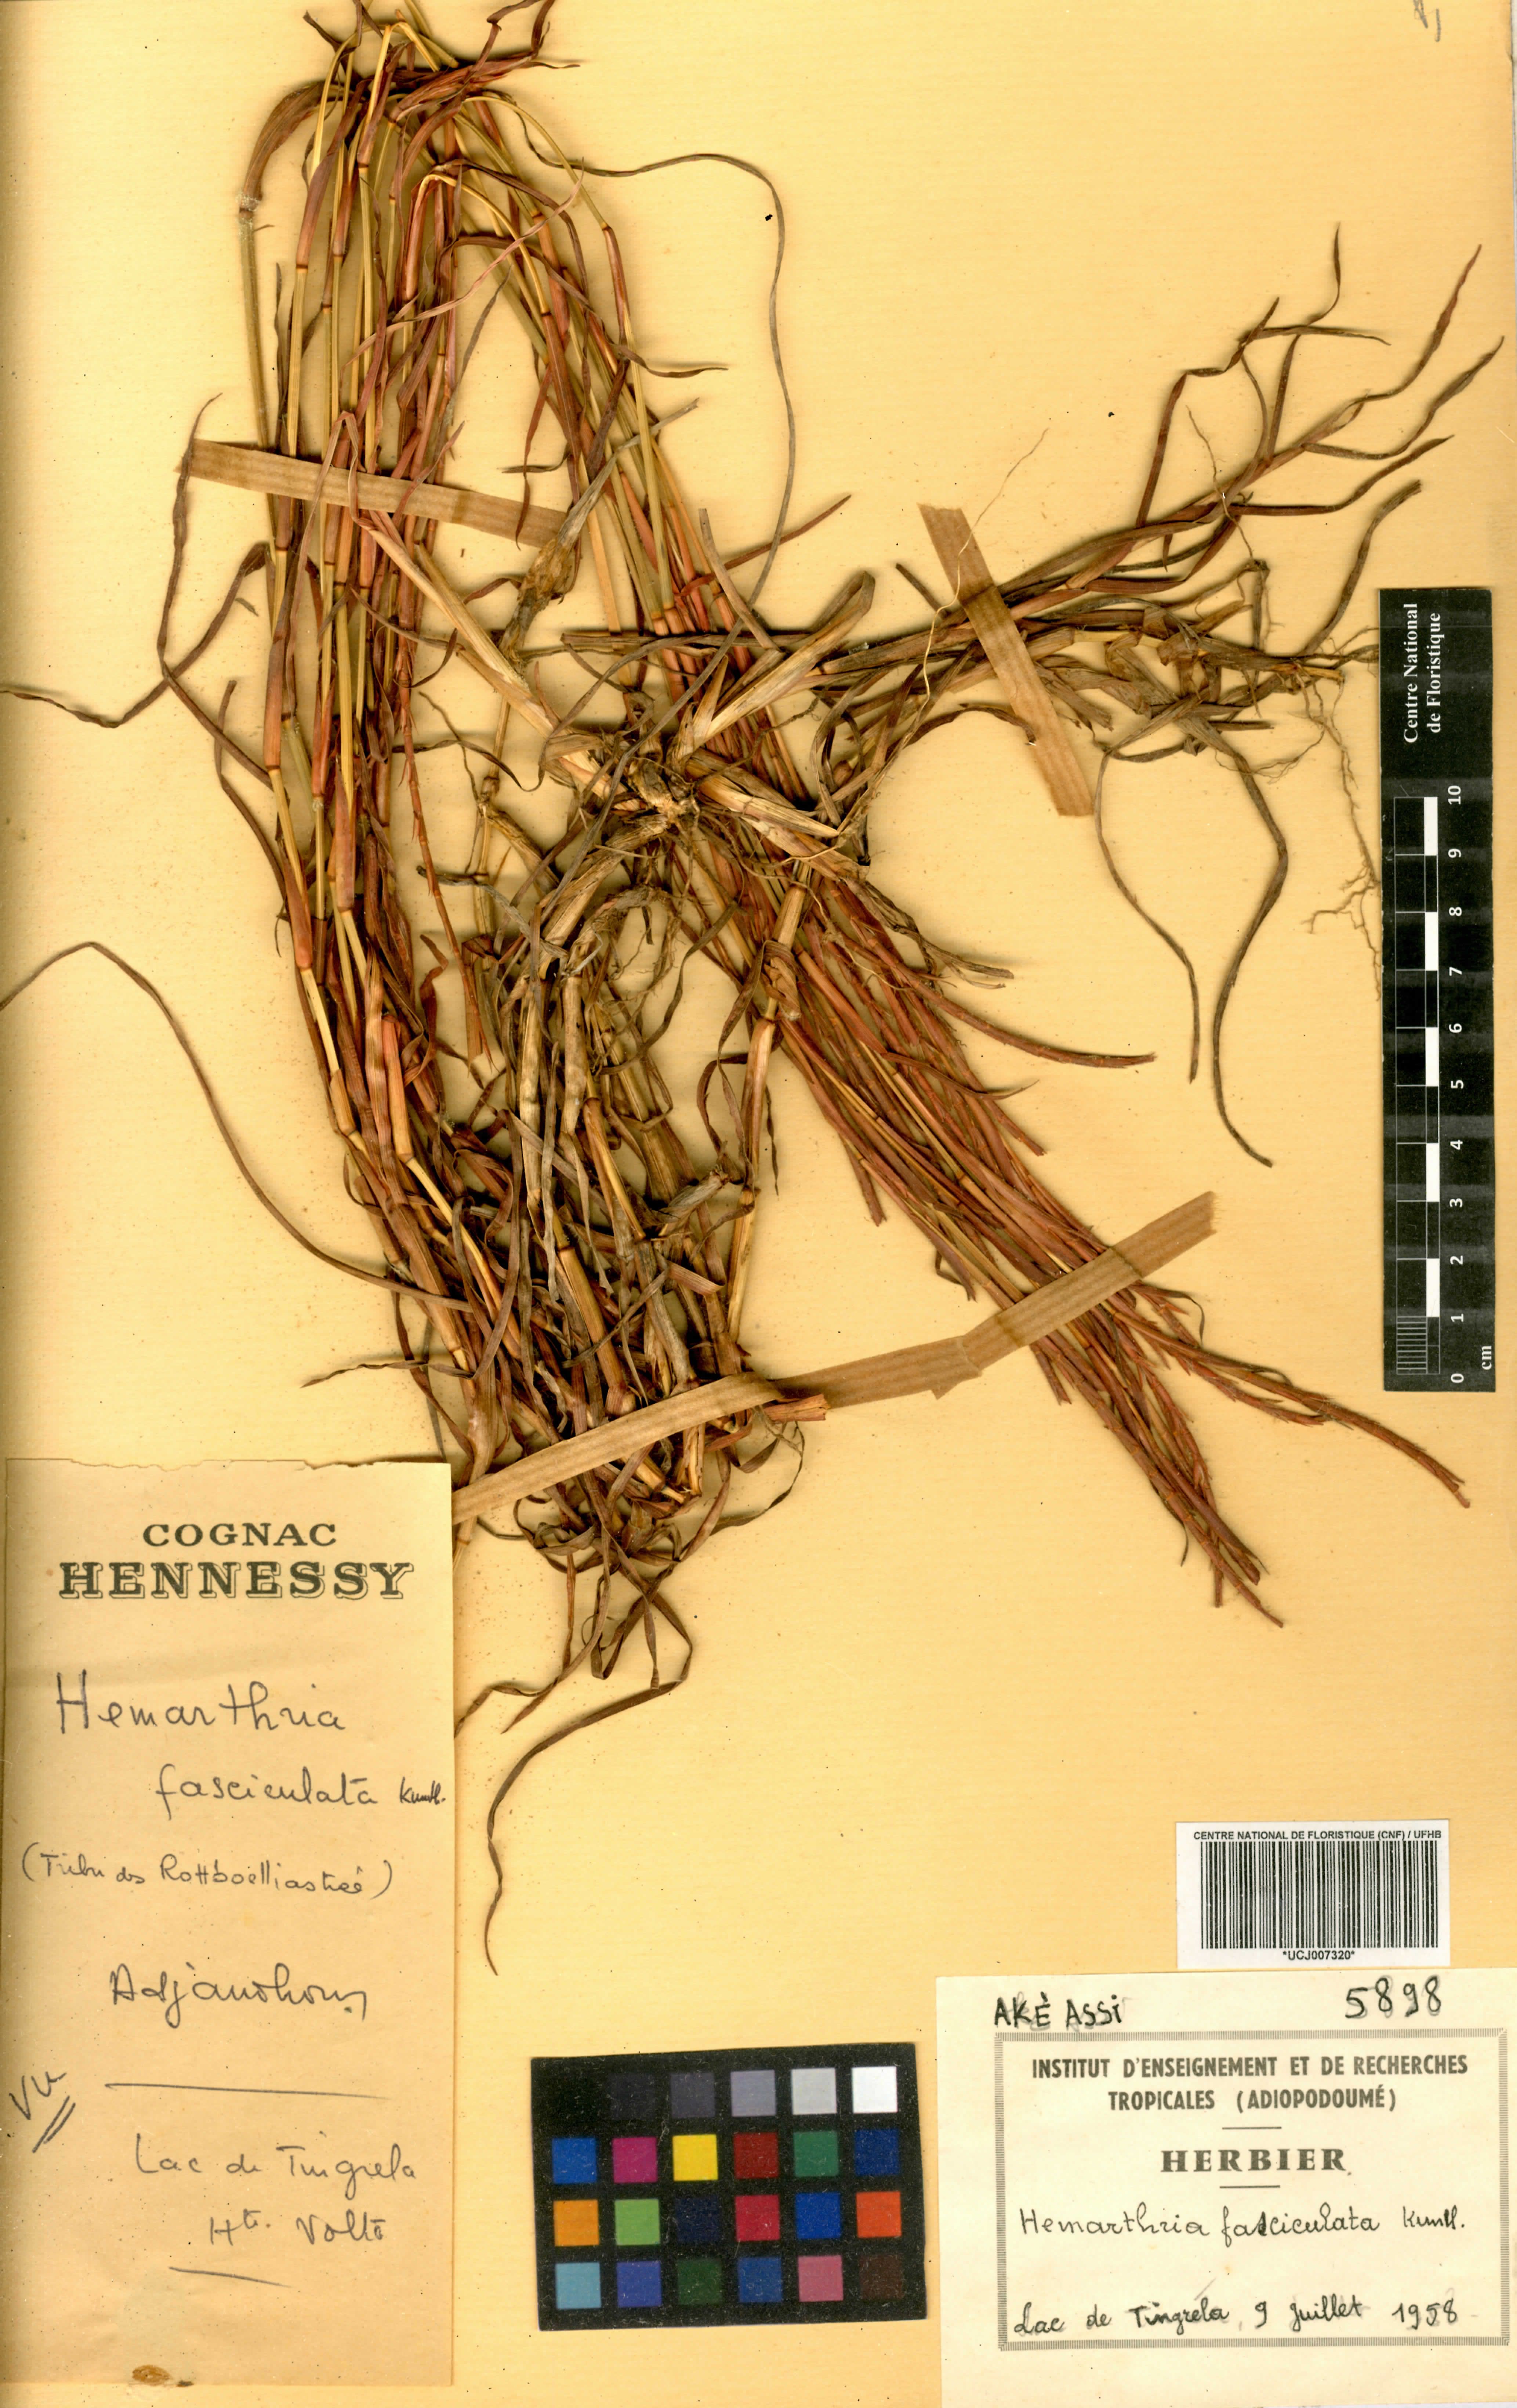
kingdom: Plantae
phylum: Tracheophyta
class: Liliopsida
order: Poales
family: Poaceae
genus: Hemarthria
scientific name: Hemarthria altissima
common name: African jointgrass
